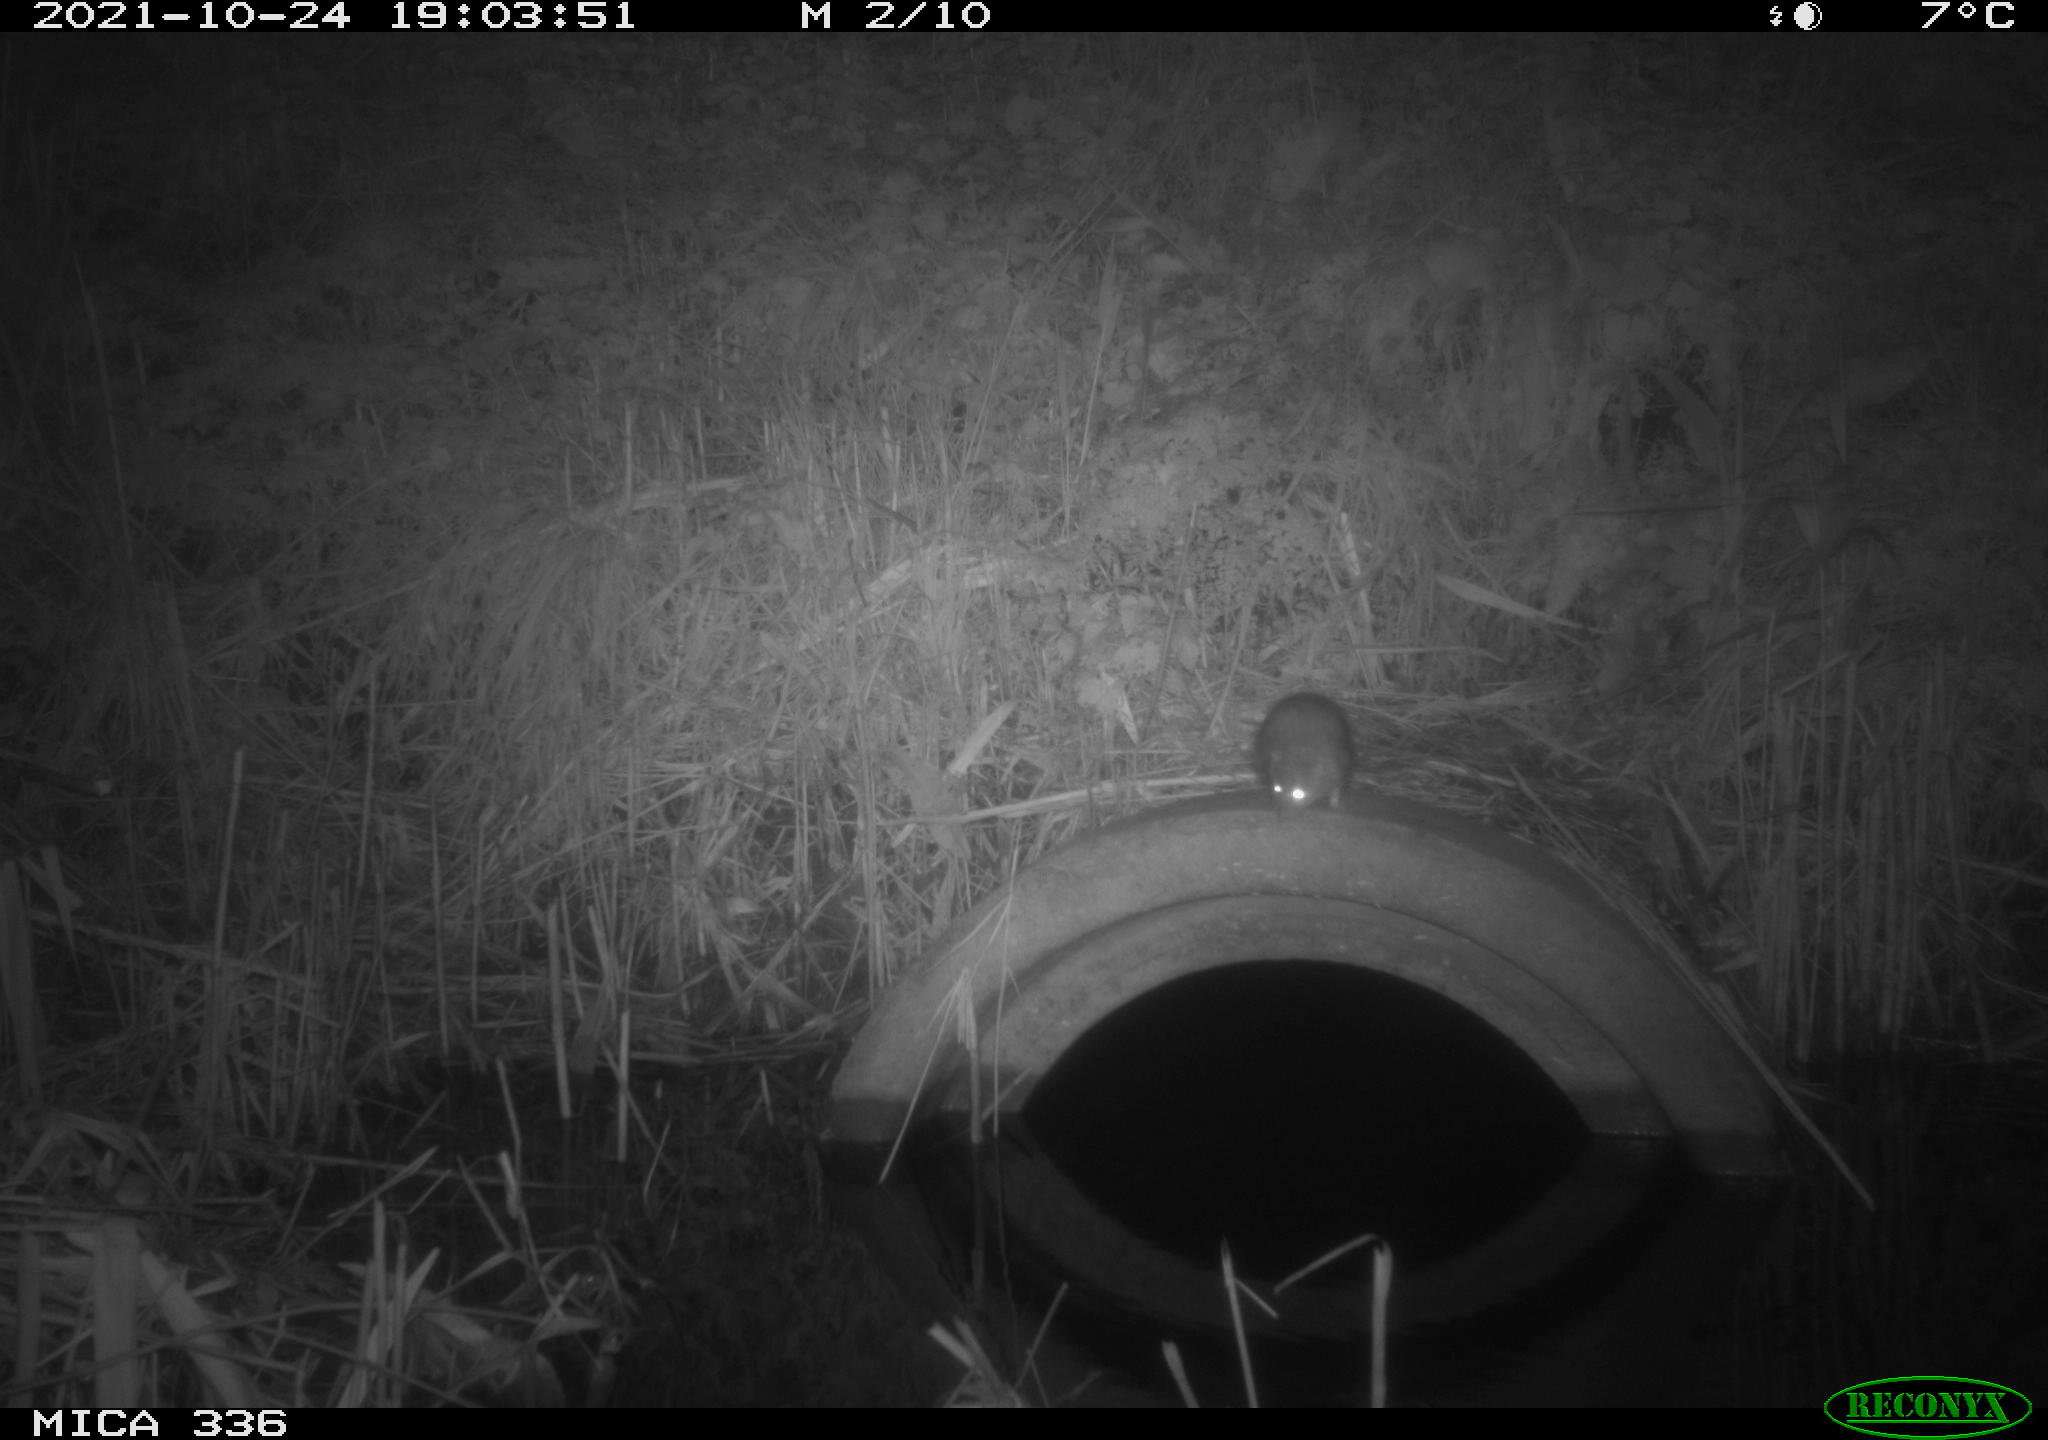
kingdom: Animalia
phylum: Chordata
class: Mammalia
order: Rodentia
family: Muridae
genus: Rattus
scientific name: Rattus norvegicus
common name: Brown rat
